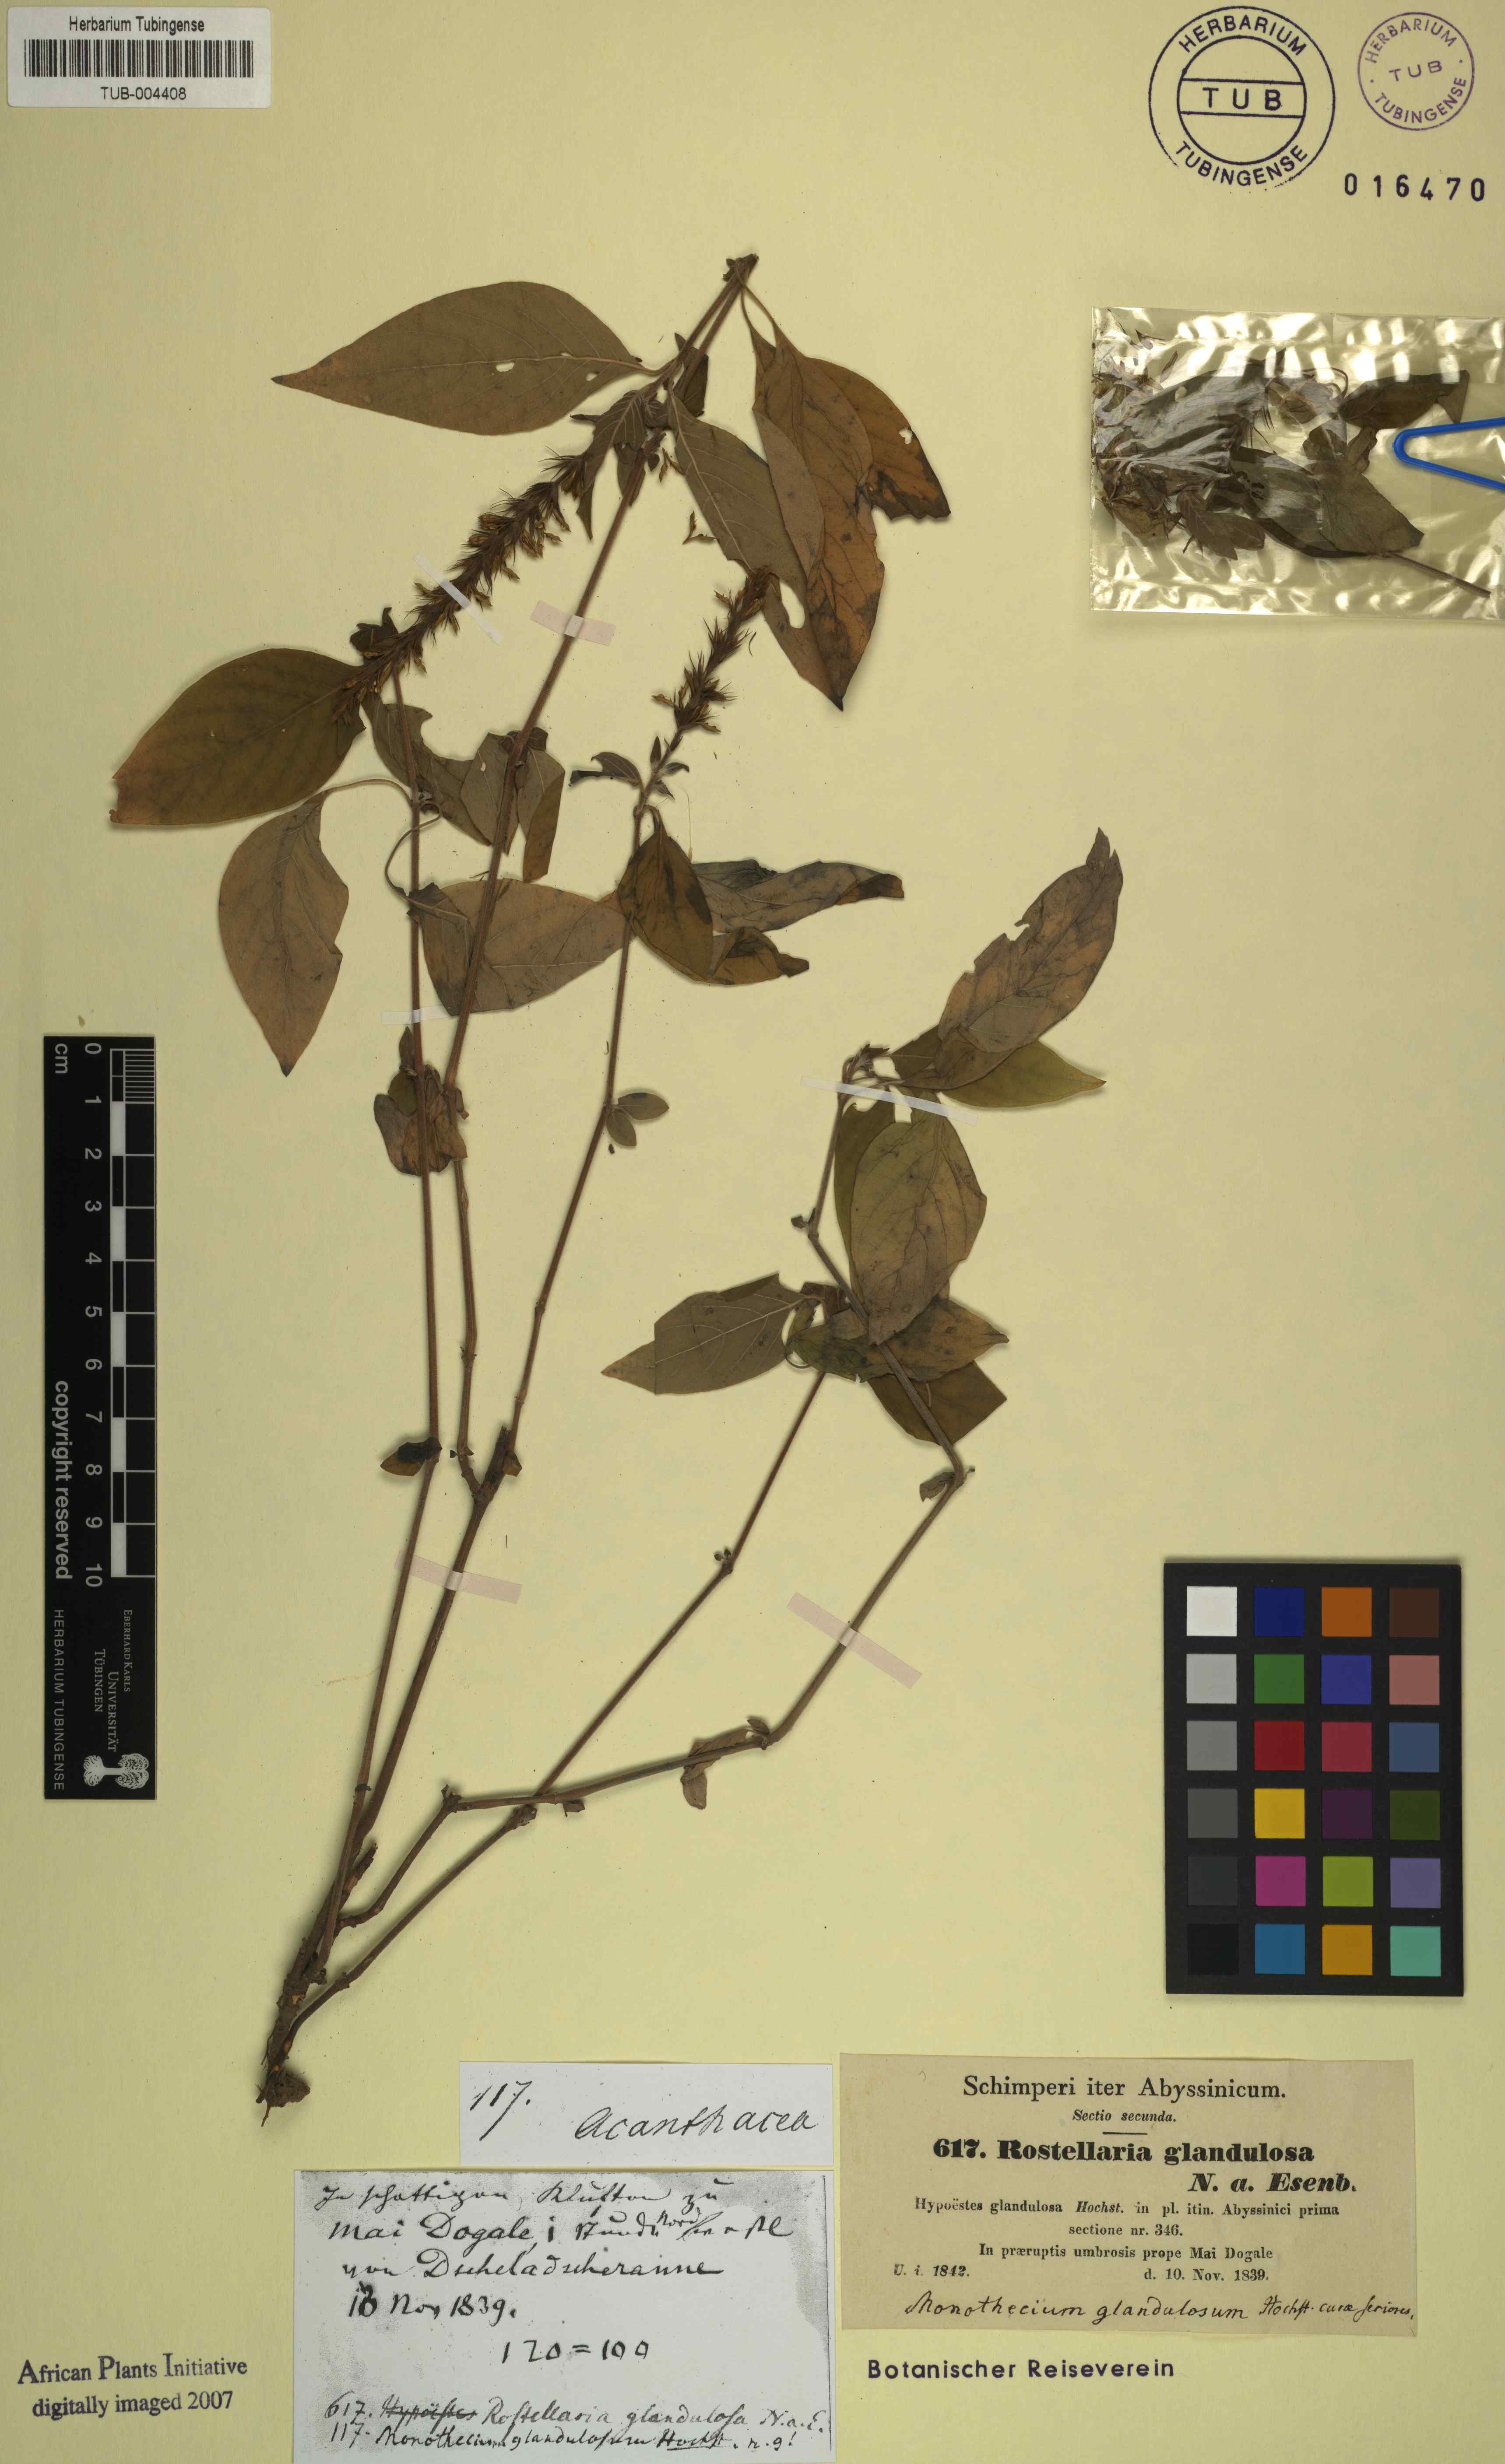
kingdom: Plantae
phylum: Tracheophyta
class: Magnoliopsida
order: Lamiales
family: Acanthaceae
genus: Monothecium
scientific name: Monothecium glandulosum
